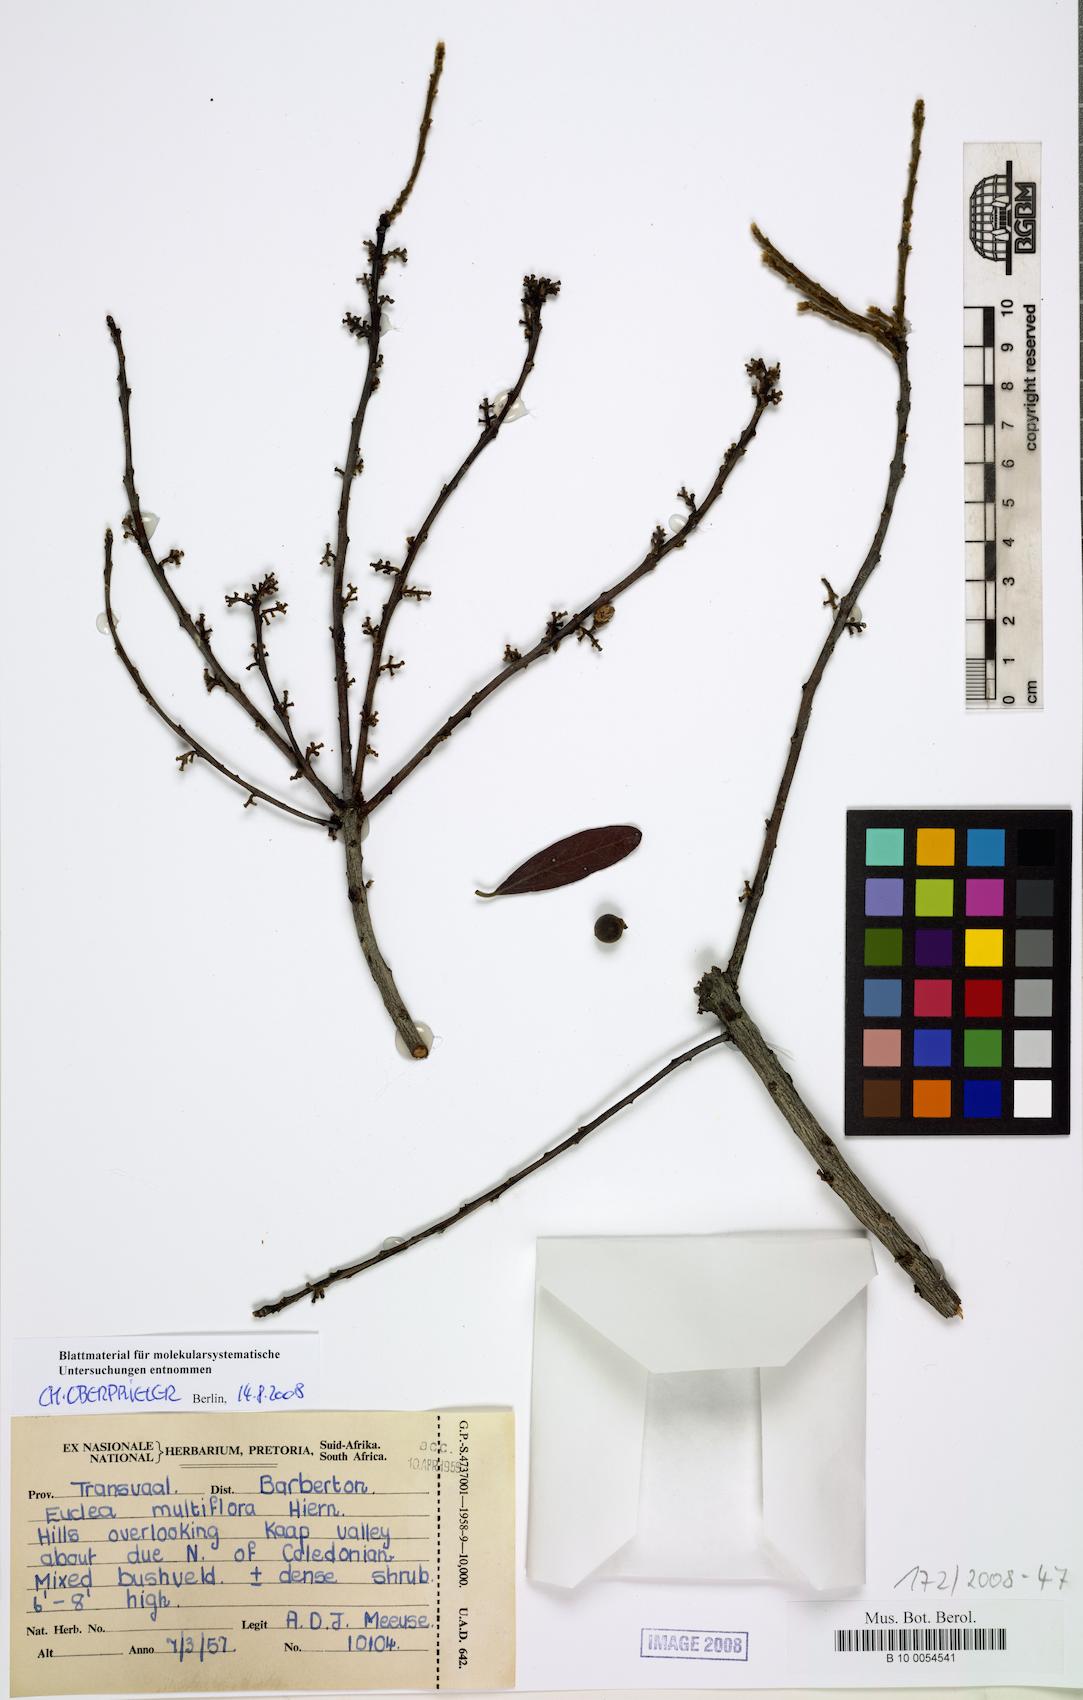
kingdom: Plantae
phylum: Tracheophyta
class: Magnoliopsida
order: Ericales
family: Ebenaceae
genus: Euclea
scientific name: Euclea natalensis
